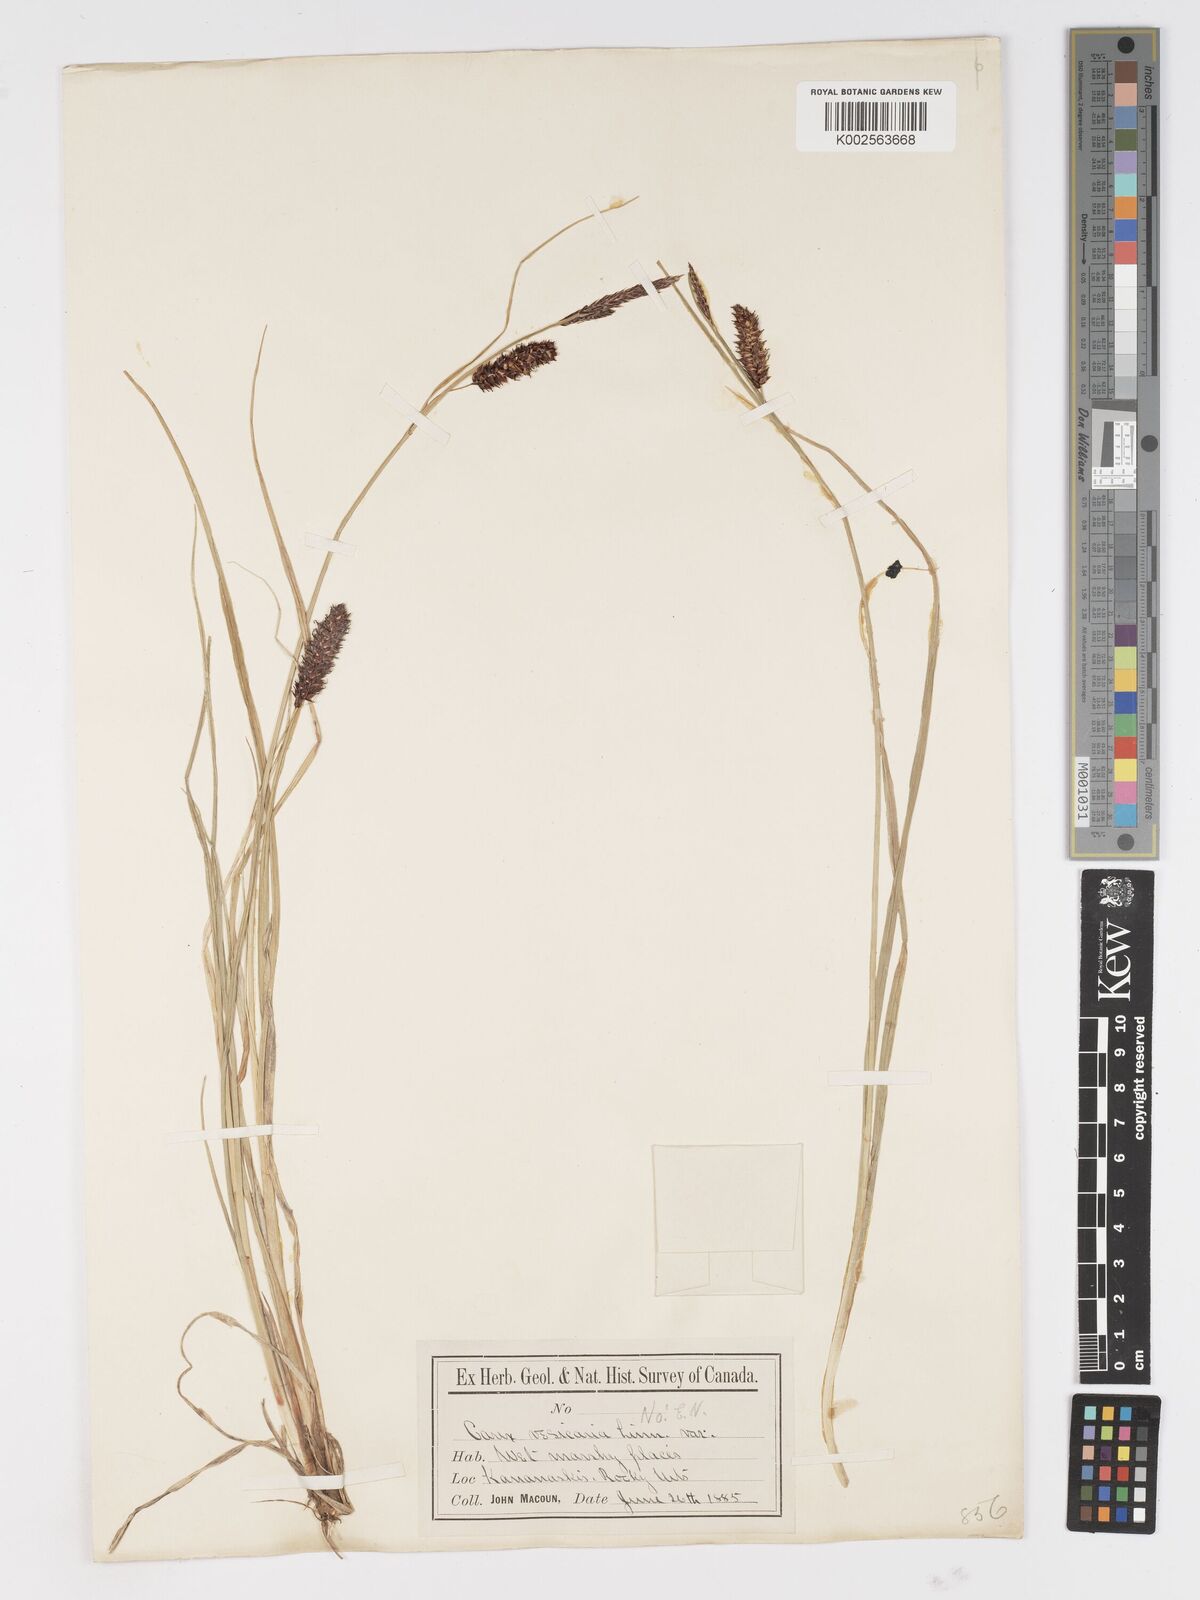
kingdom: Plantae
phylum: Tracheophyta
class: Liliopsida
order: Poales
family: Cyperaceae
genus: Carex
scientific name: Carex saxatilis
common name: Russet sedge
